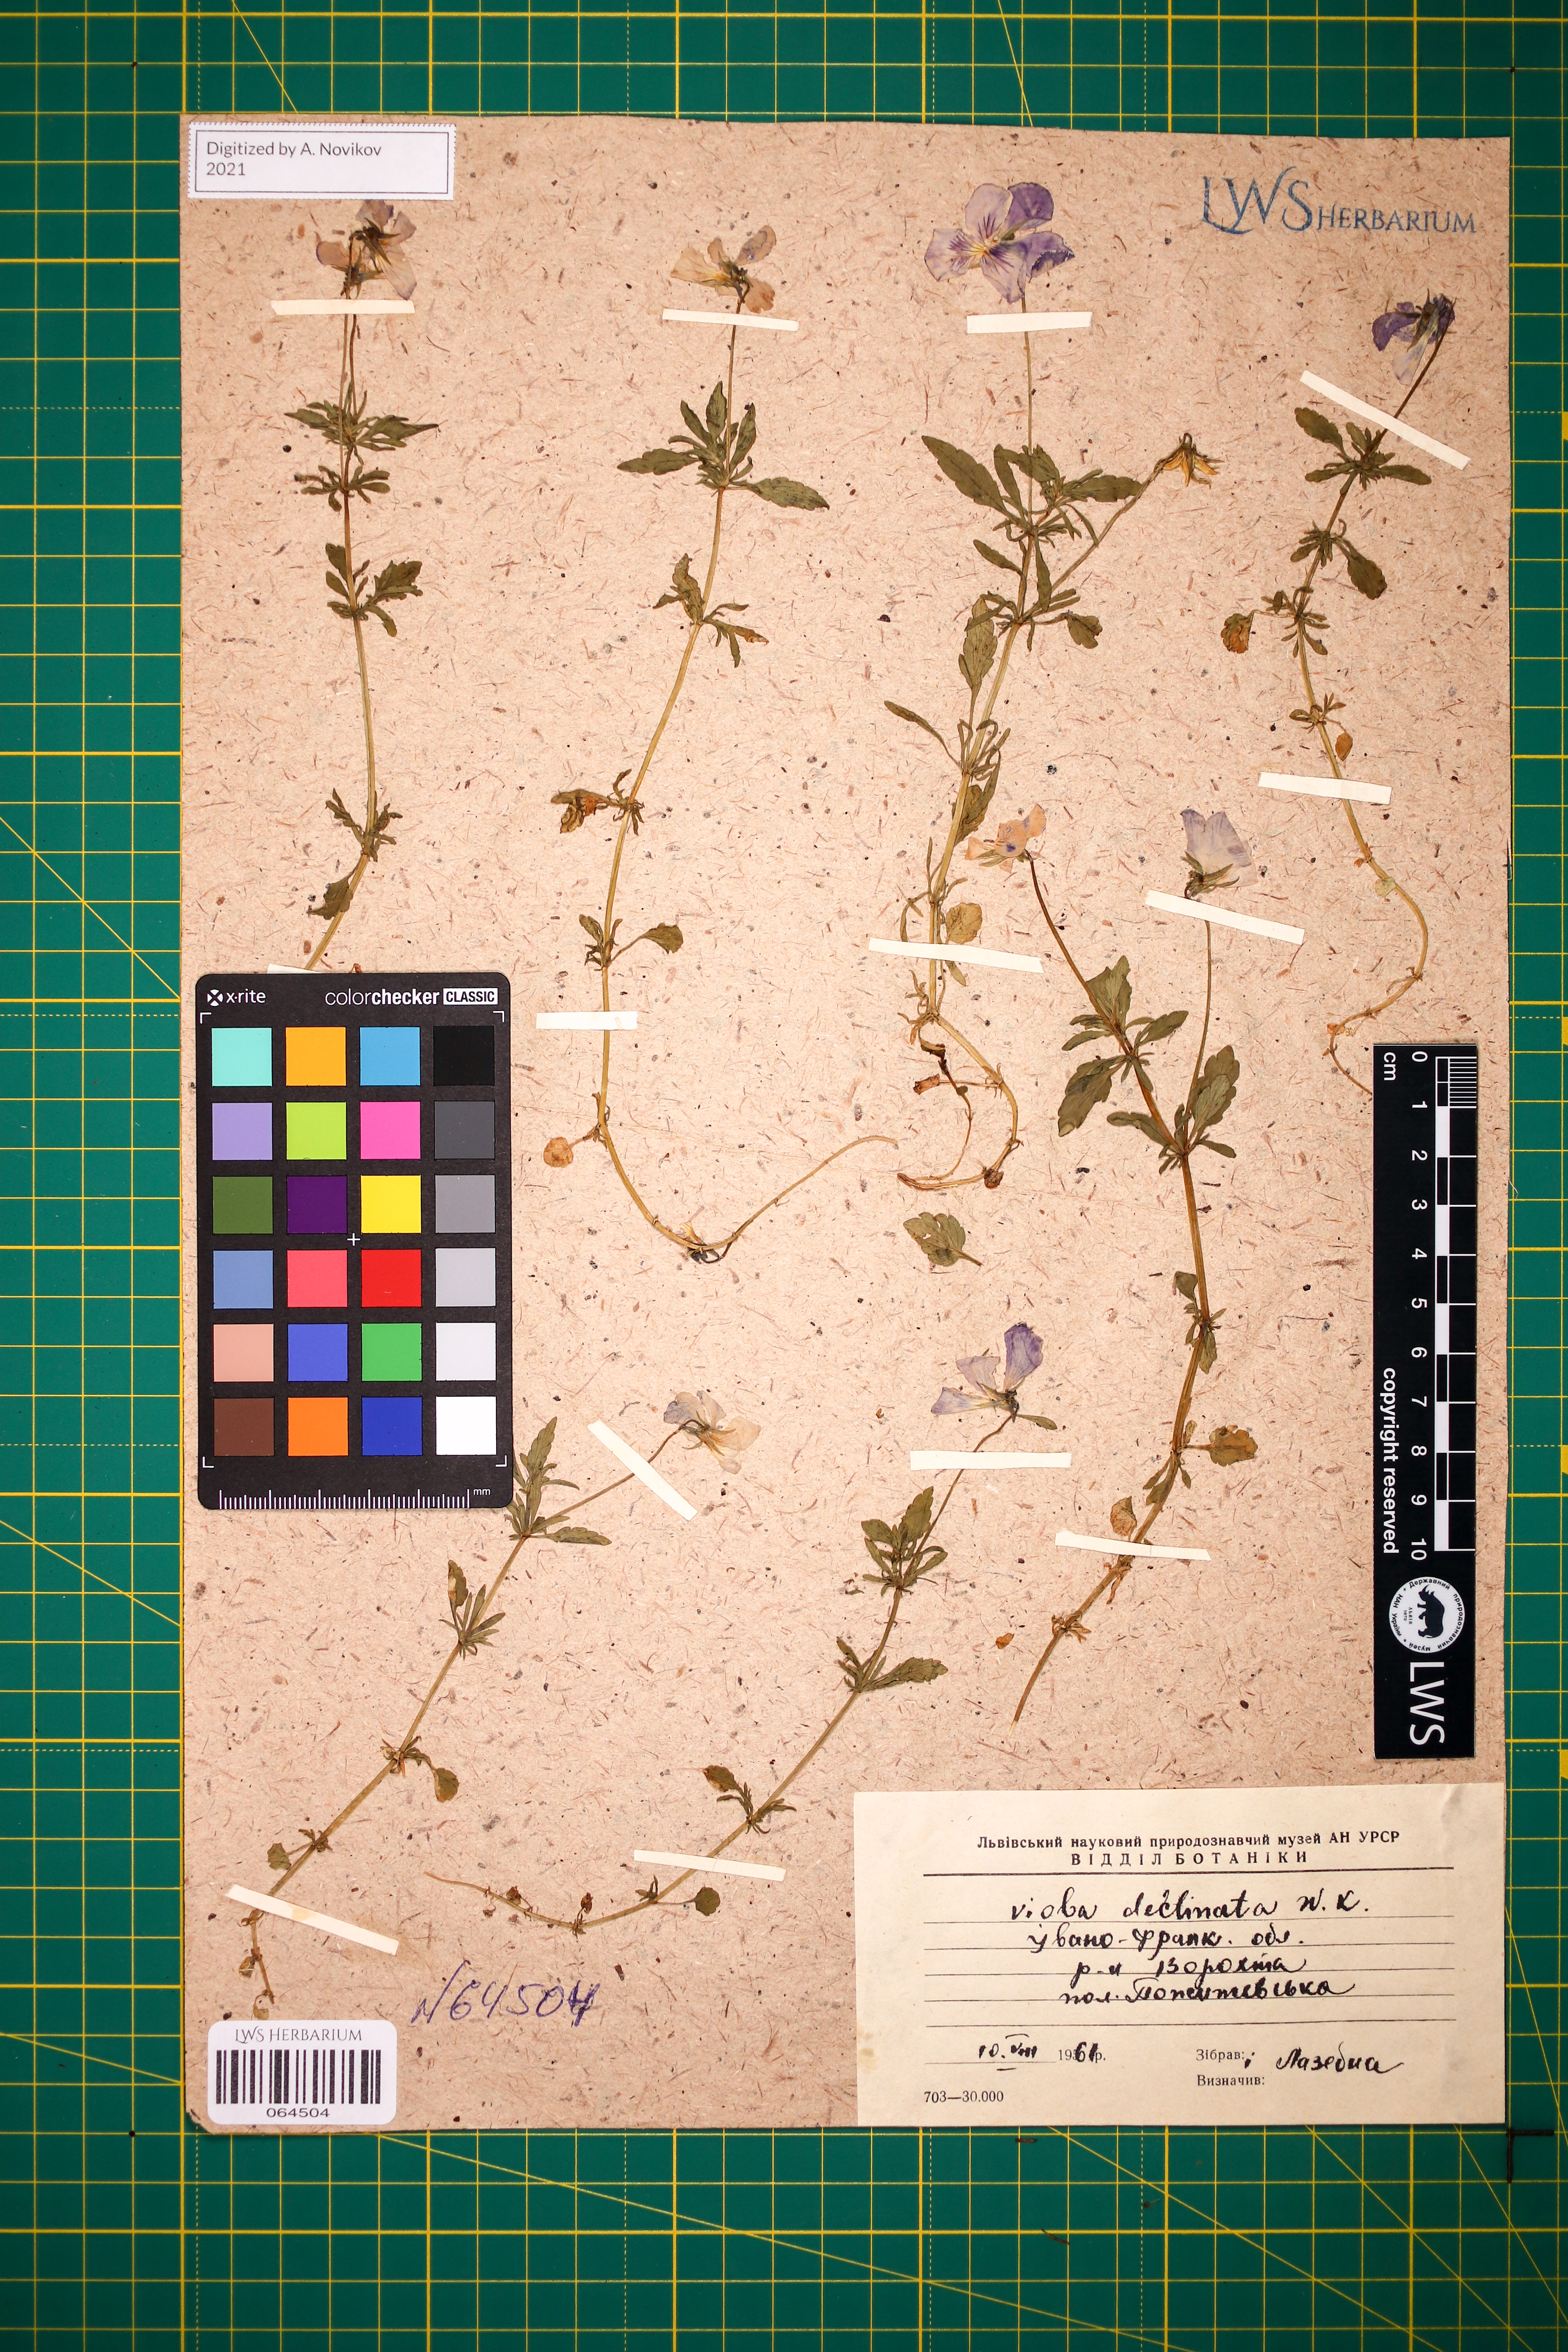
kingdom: Plantae
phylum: Tracheophyta
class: Magnoliopsida
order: Malpighiales
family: Violaceae
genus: Viola
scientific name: Viola declinata
